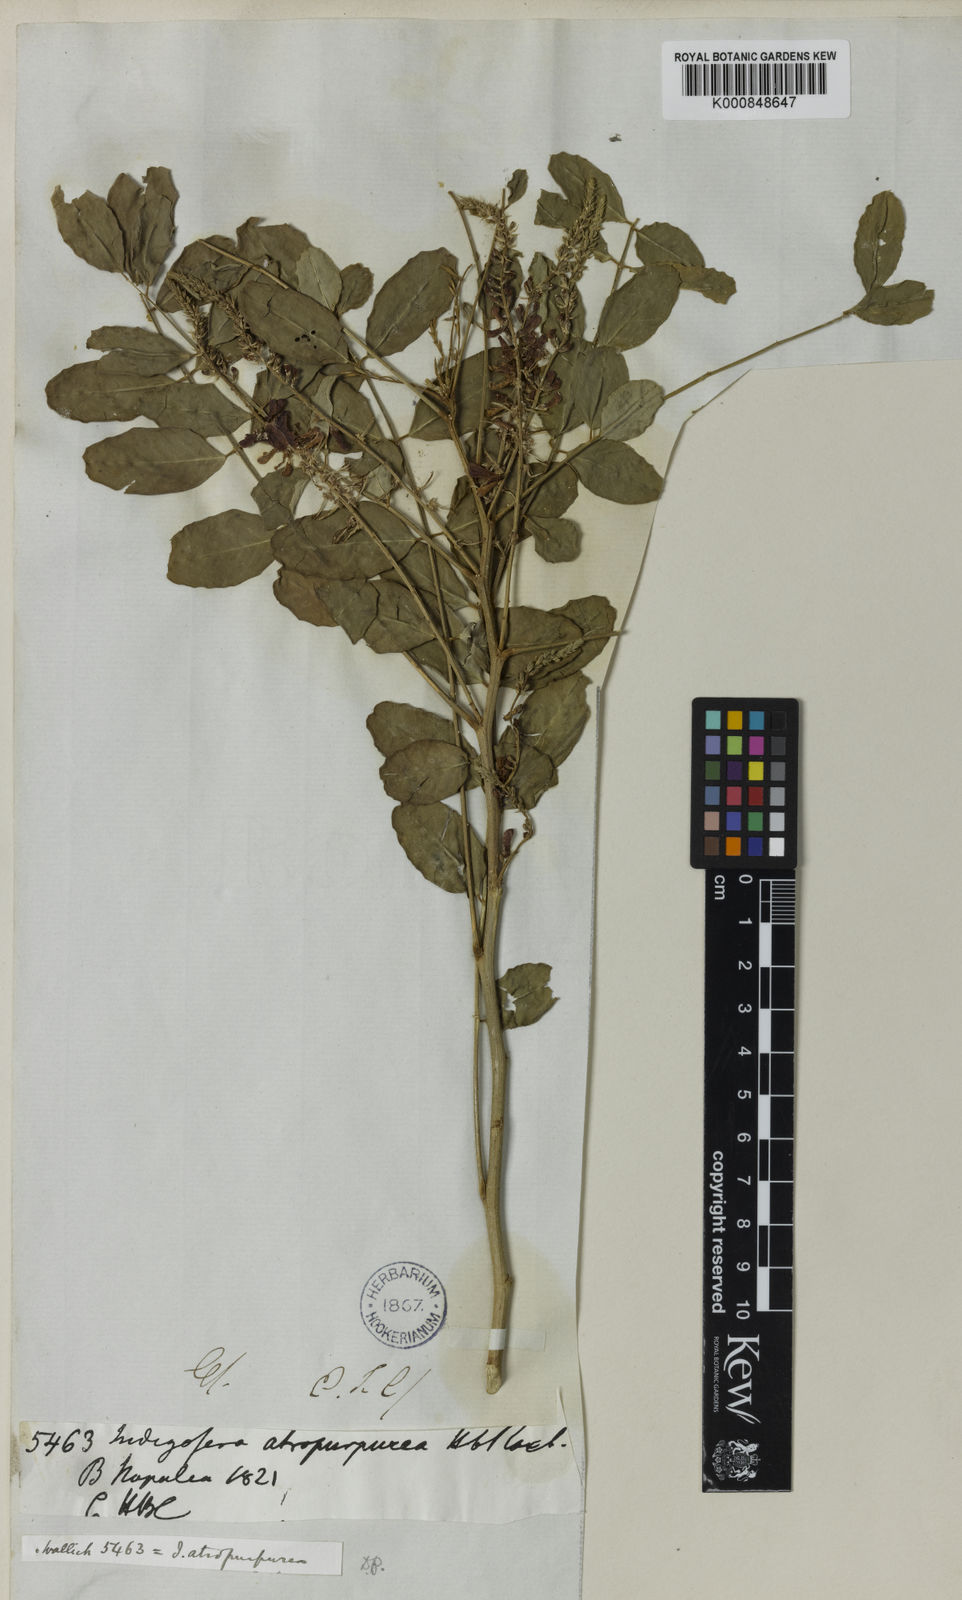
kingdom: Plantae
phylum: Tracheophyta
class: Magnoliopsida
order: Fabales
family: Fabaceae
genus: Indigofera
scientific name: Indigofera atropurpurea
